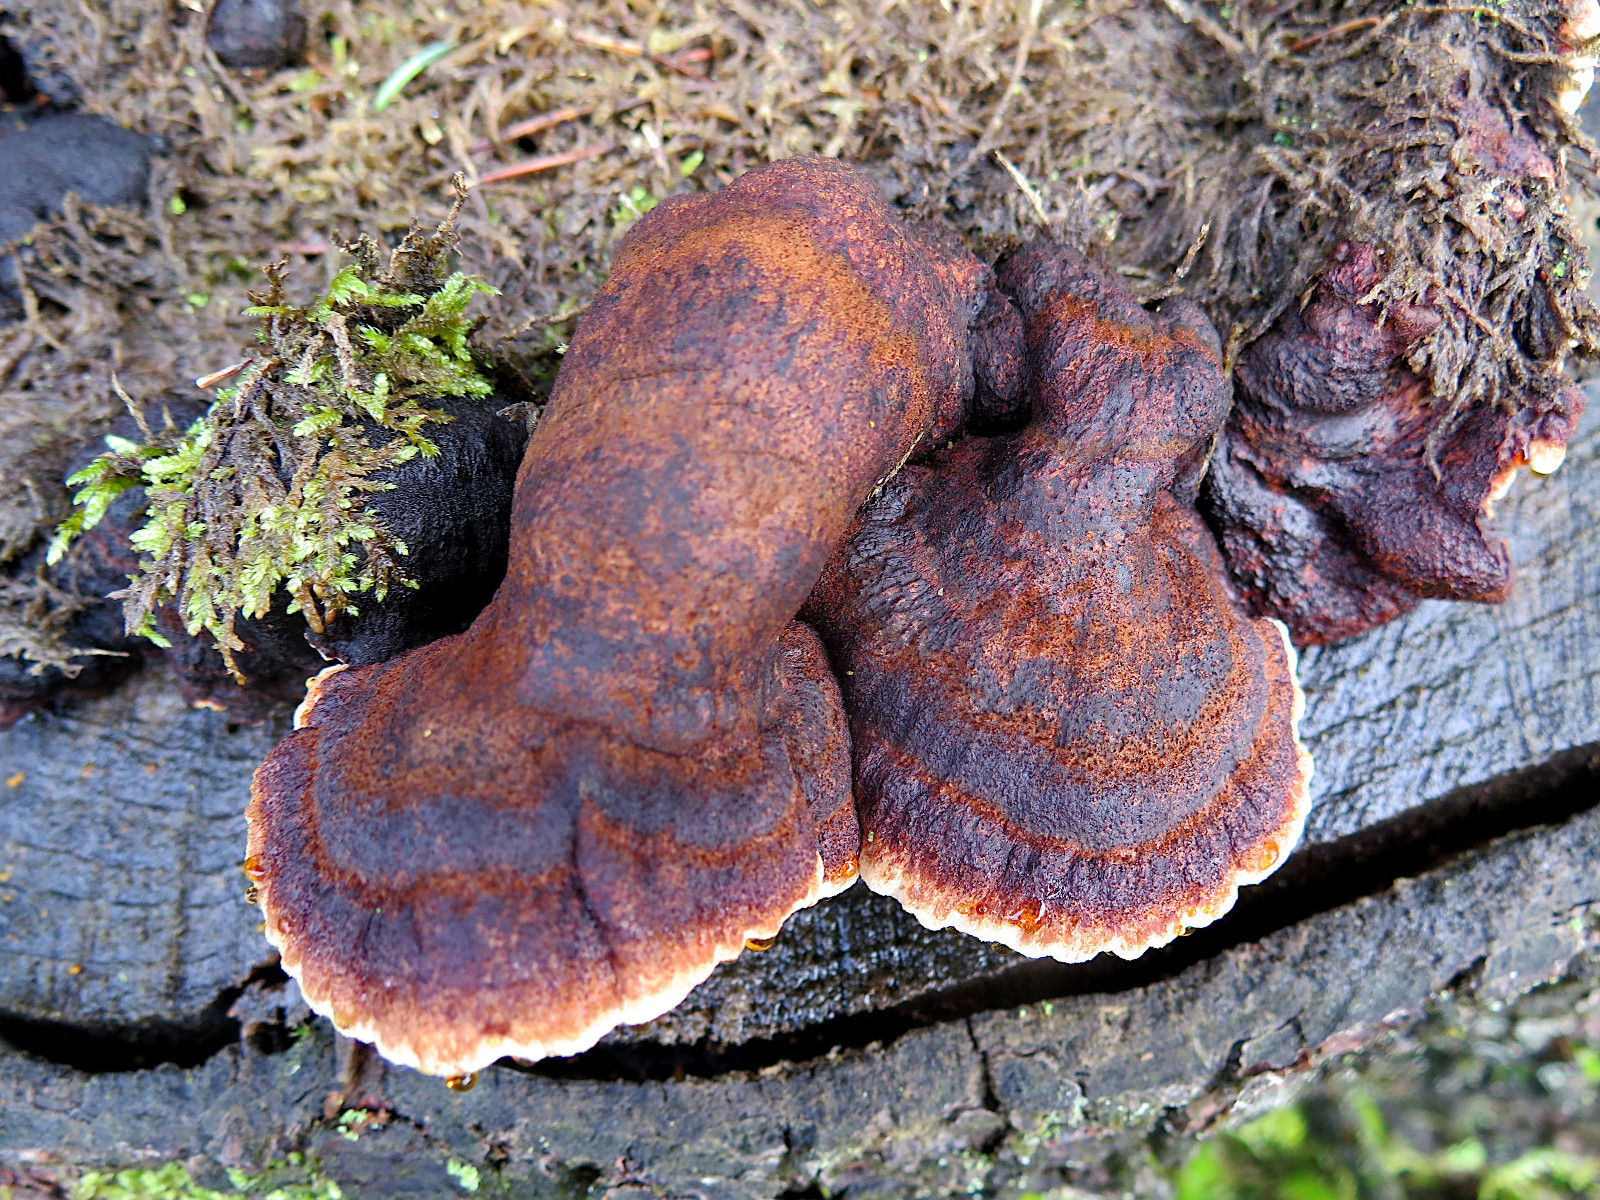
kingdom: Fungi
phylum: Basidiomycota
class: Agaricomycetes
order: Polyporales
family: Ischnodermataceae
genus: Ischnoderma
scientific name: Ischnoderma benzoinum
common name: gran-tjæreporesvamp
